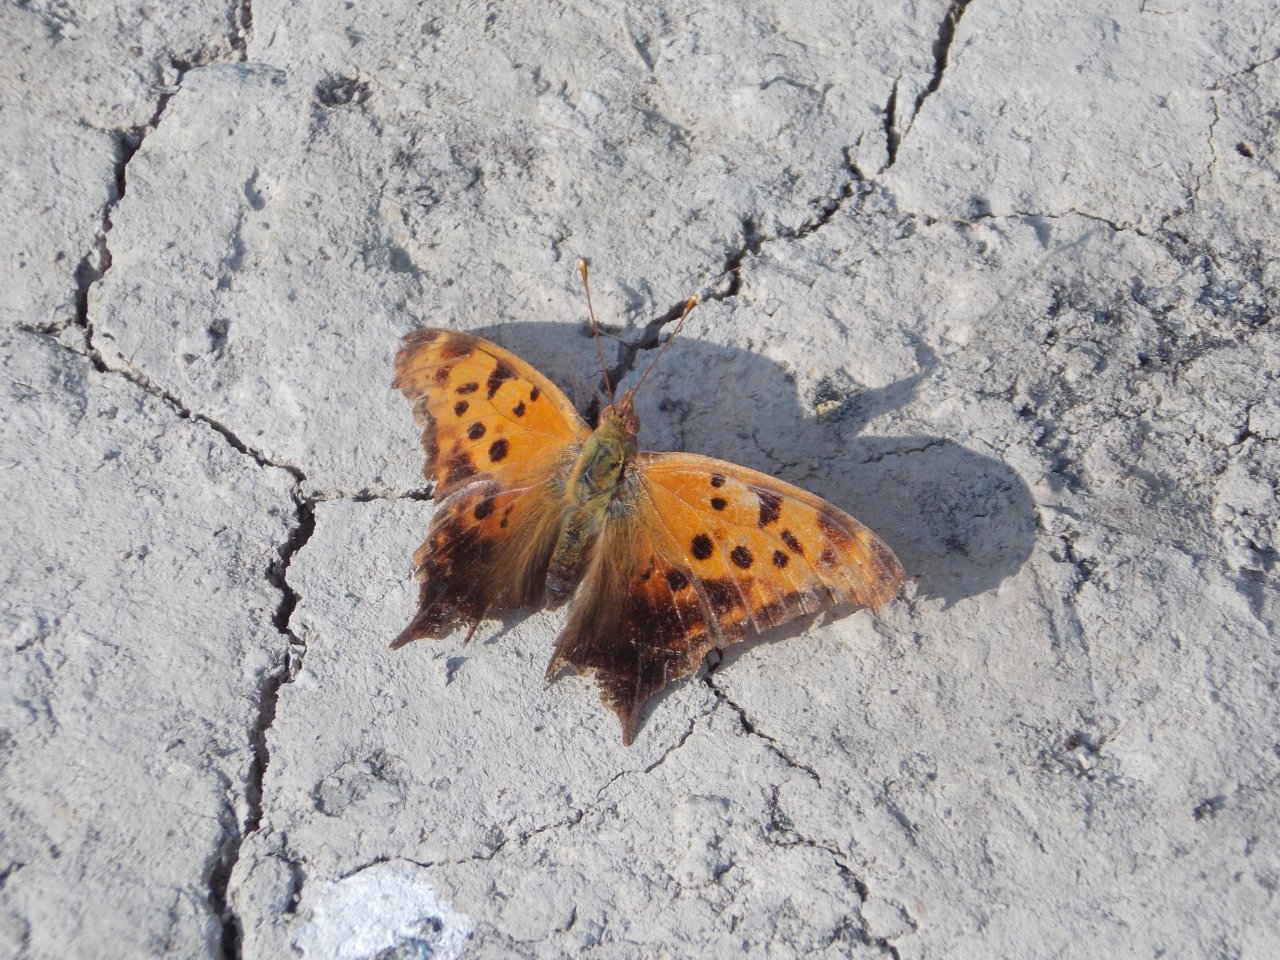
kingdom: Animalia
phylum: Arthropoda
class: Insecta
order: Lepidoptera
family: Nymphalidae
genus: Polygonia
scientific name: Polygonia interrogationis
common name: Question Mark
